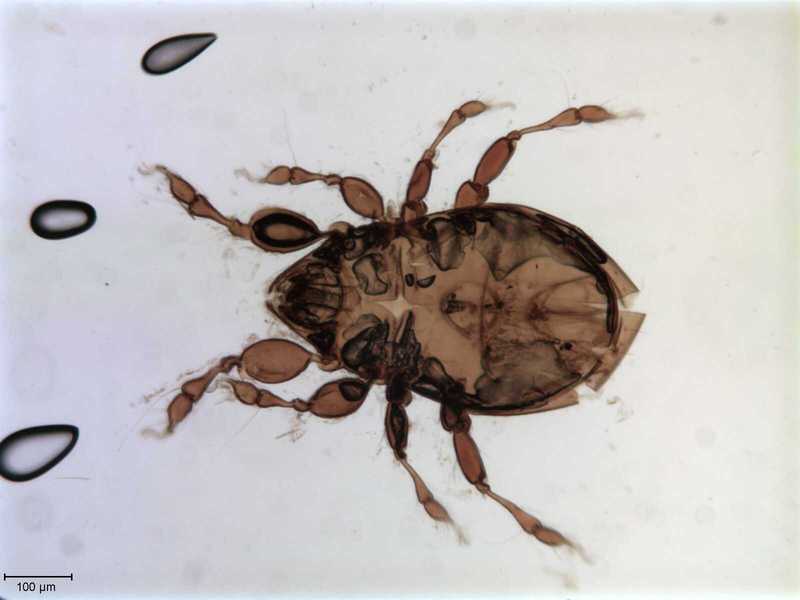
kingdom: Animalia
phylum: Arthropoda
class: Arachnida
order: Sarcoptiformes
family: Eremaeidae
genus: Eremaeus
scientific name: Eremaeus plumosus
